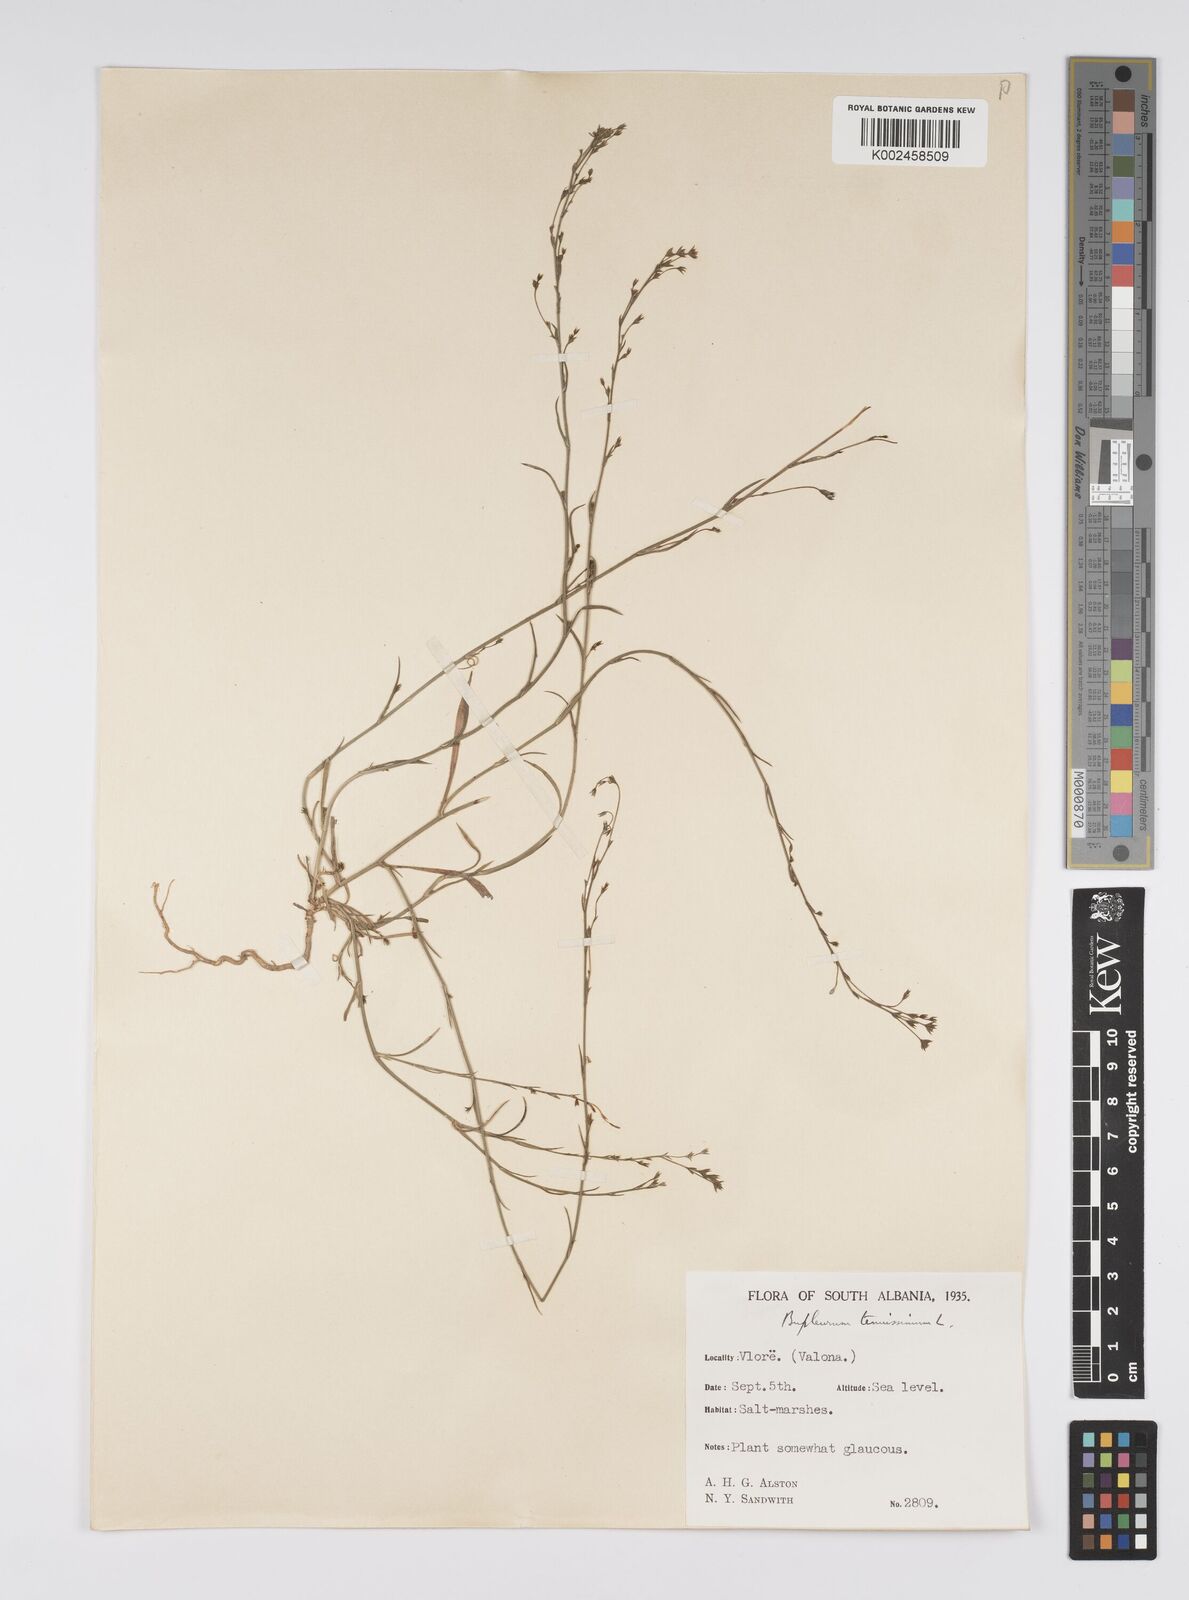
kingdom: Plantae
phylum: Tracheophyta
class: Magnoliopsida
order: Apiales
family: Apiaceae
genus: Bupleurum
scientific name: Bupleurum tenuissimum
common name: Slender hare's-ear
